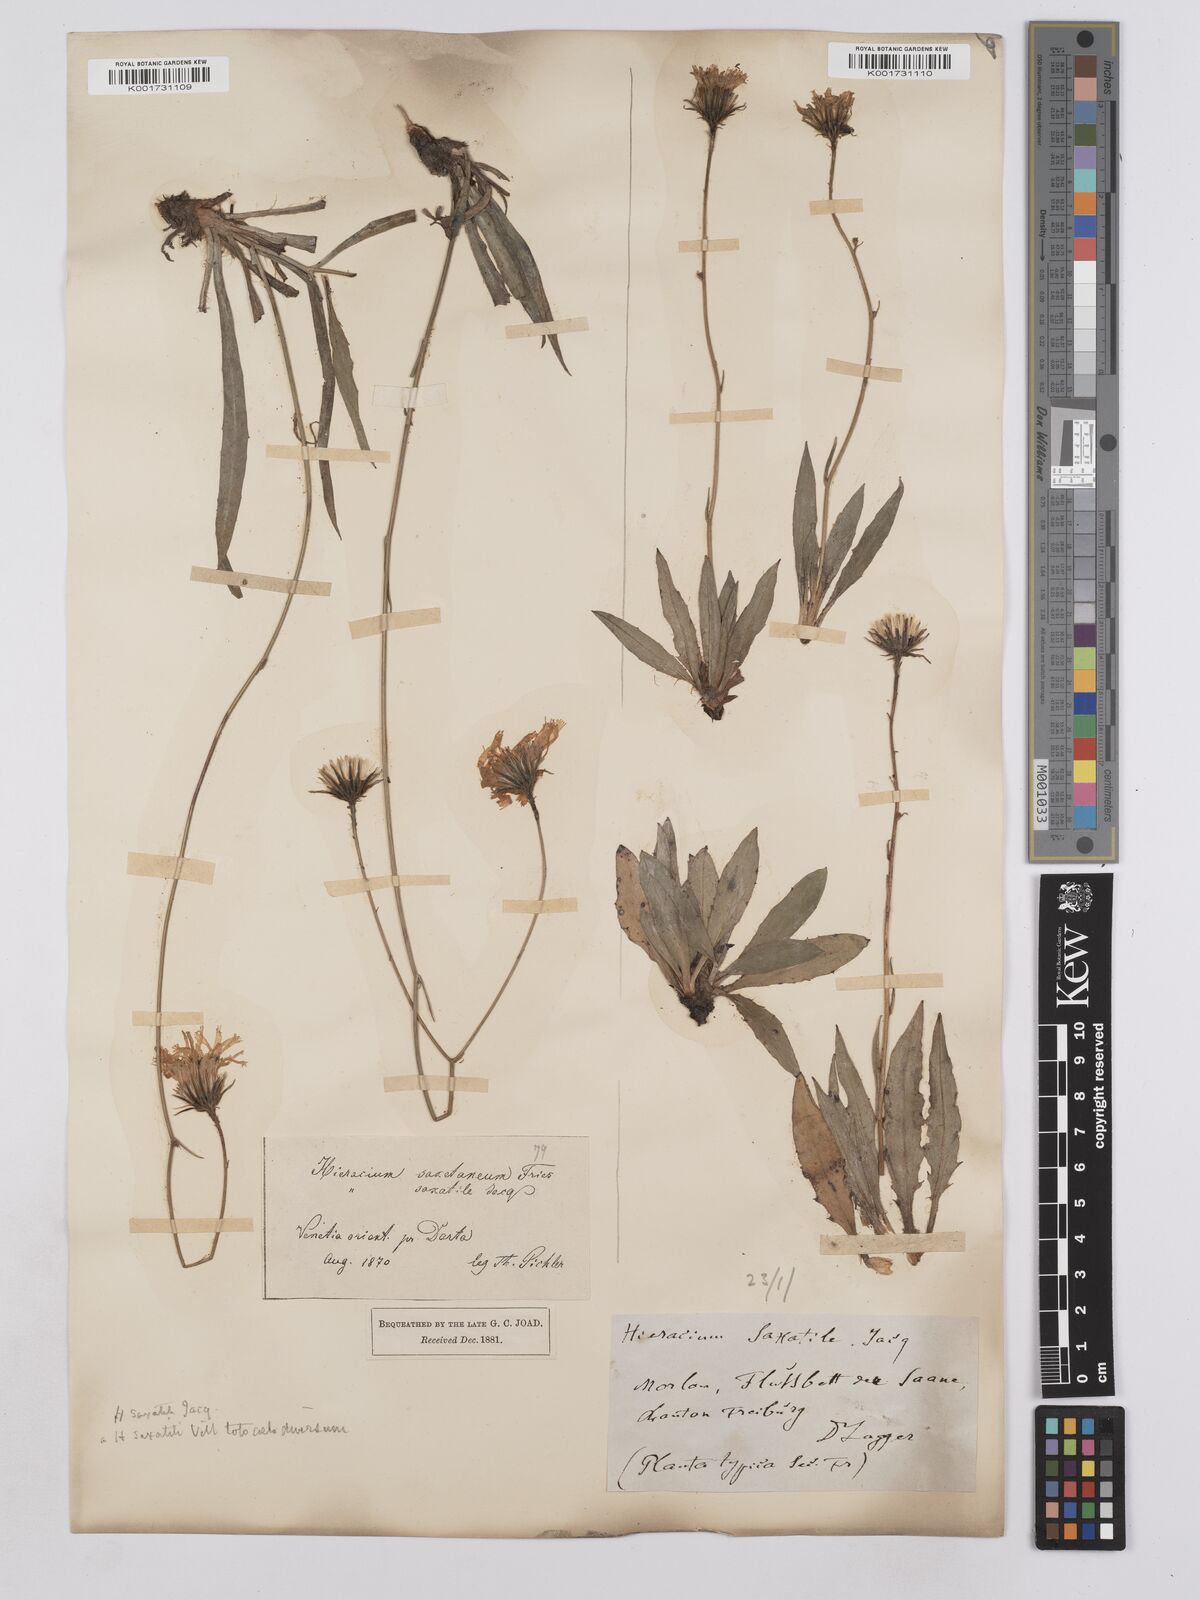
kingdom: Plantae
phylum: Tracheophyta
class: Magnoliopsida
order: Asterales
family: Asteraceae
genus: Hieracium
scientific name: Hieracium saxatile
